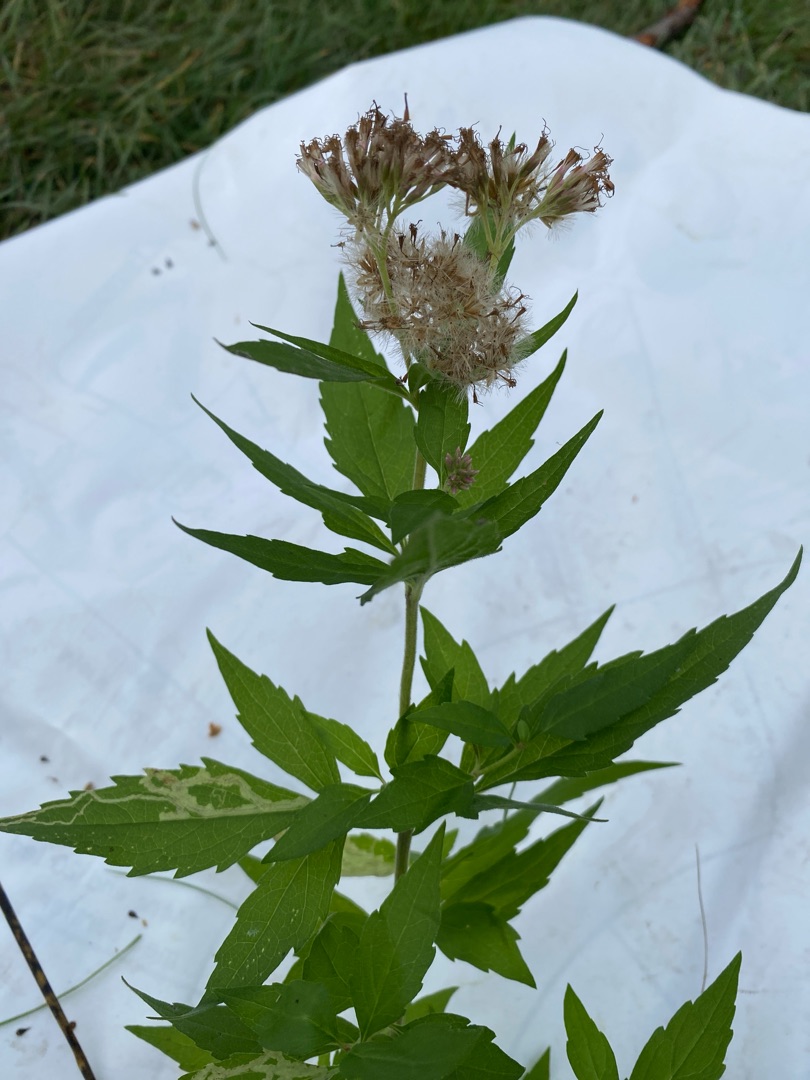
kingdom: Plantae
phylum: Tracheophyta
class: Magnoliopsida
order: Asterales
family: Asteraceae
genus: Eupatorium
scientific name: Eupatorium cannabinum
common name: Hjortetrøst
